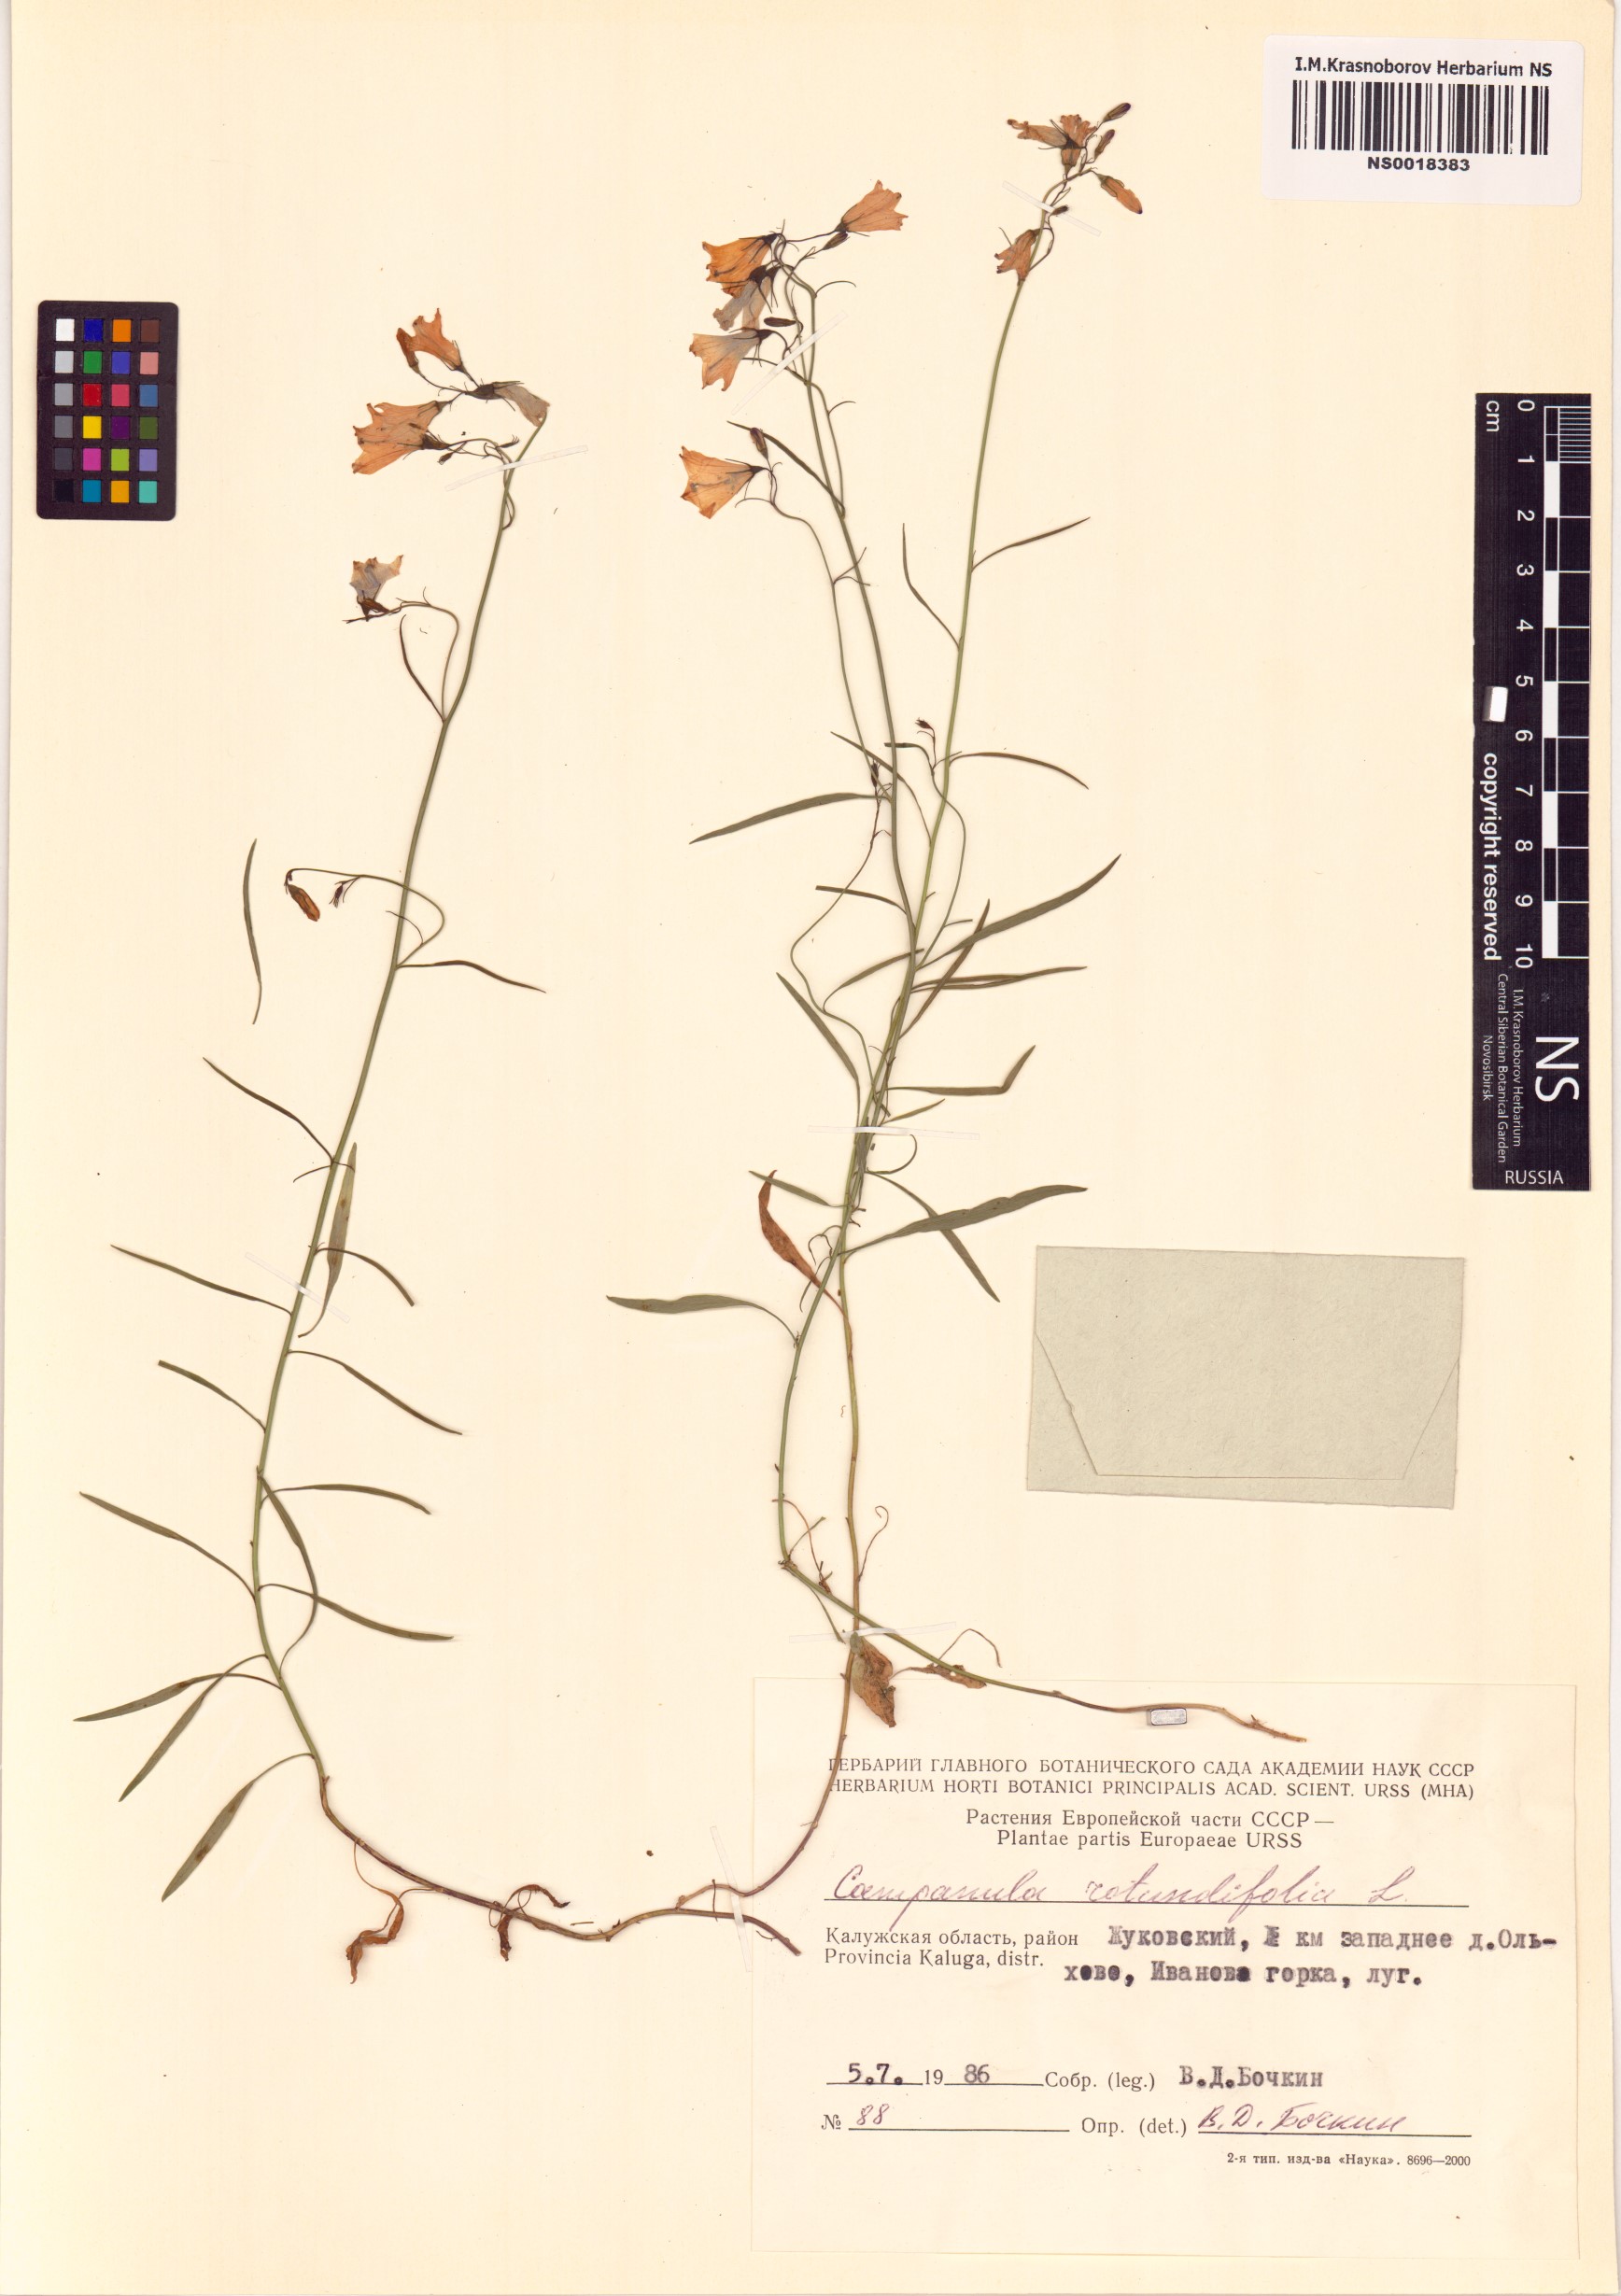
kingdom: Plantae
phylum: Tracheophyta
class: Magnoliopsida
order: Asterales
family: Campanulaceae
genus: Campanula
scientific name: Campanula rotundifolia
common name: Harebell
